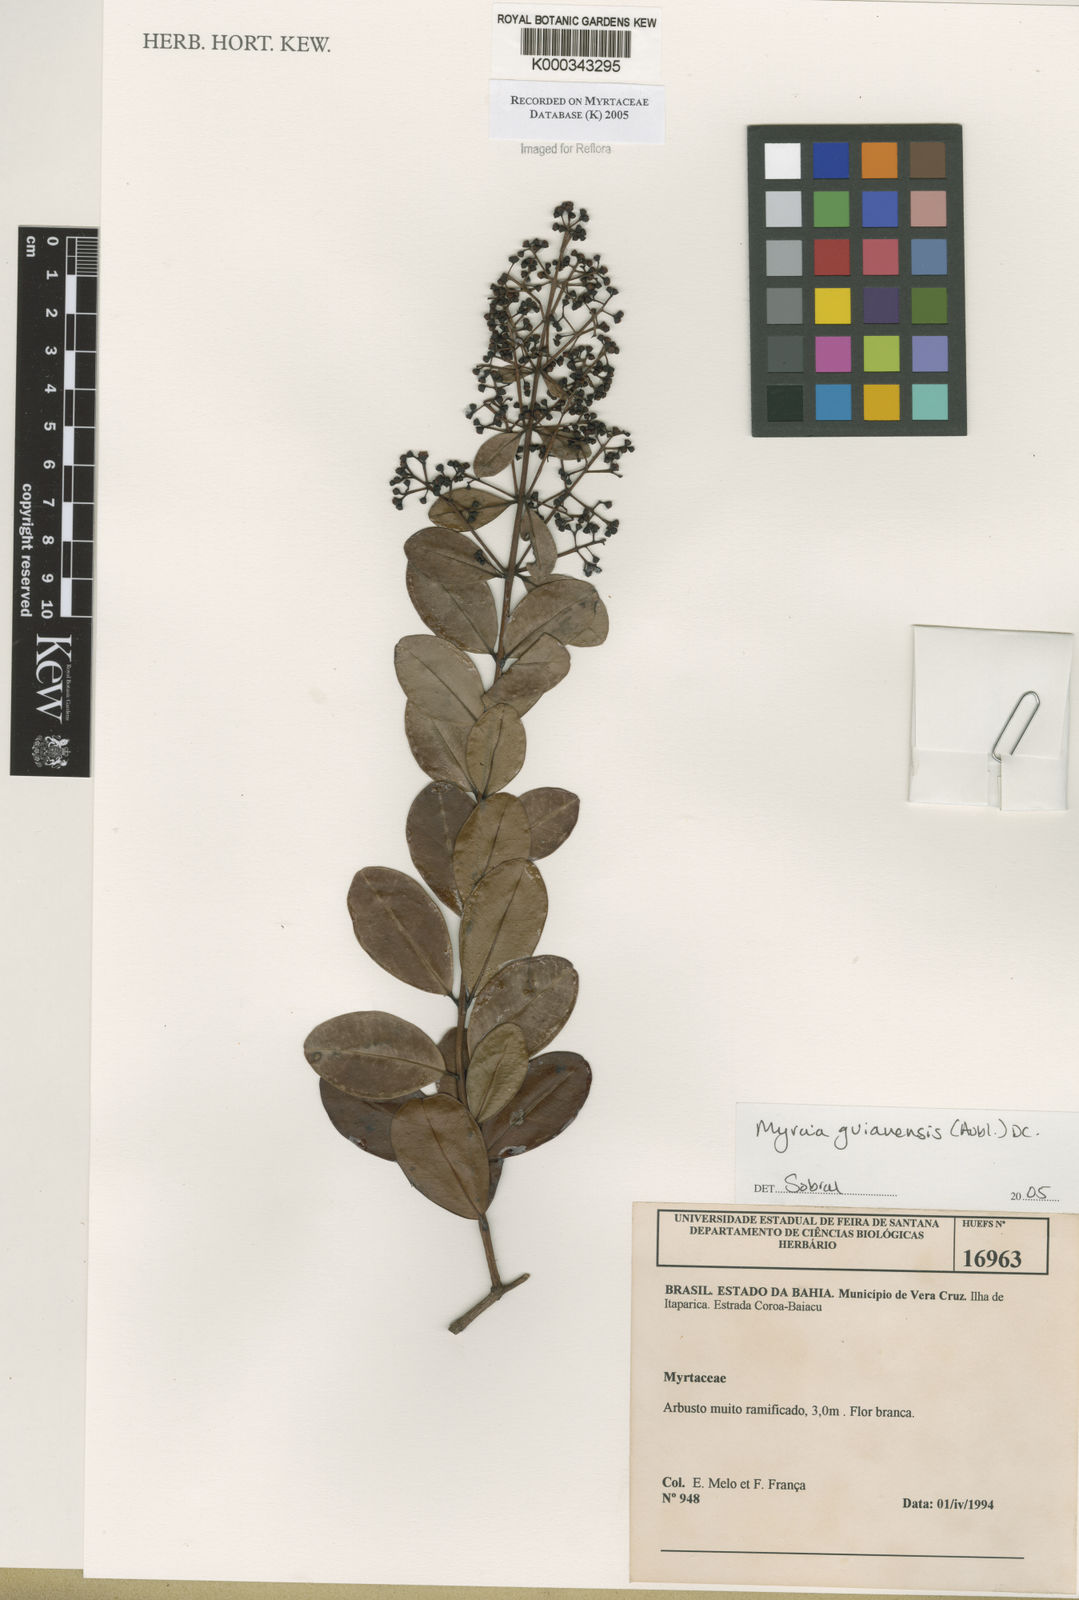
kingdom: Plantae
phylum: Tracheophyta
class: Magnoliopsida
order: Myrtales
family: Myrtaceae
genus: Myrcia
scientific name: Myrcia guianensis
